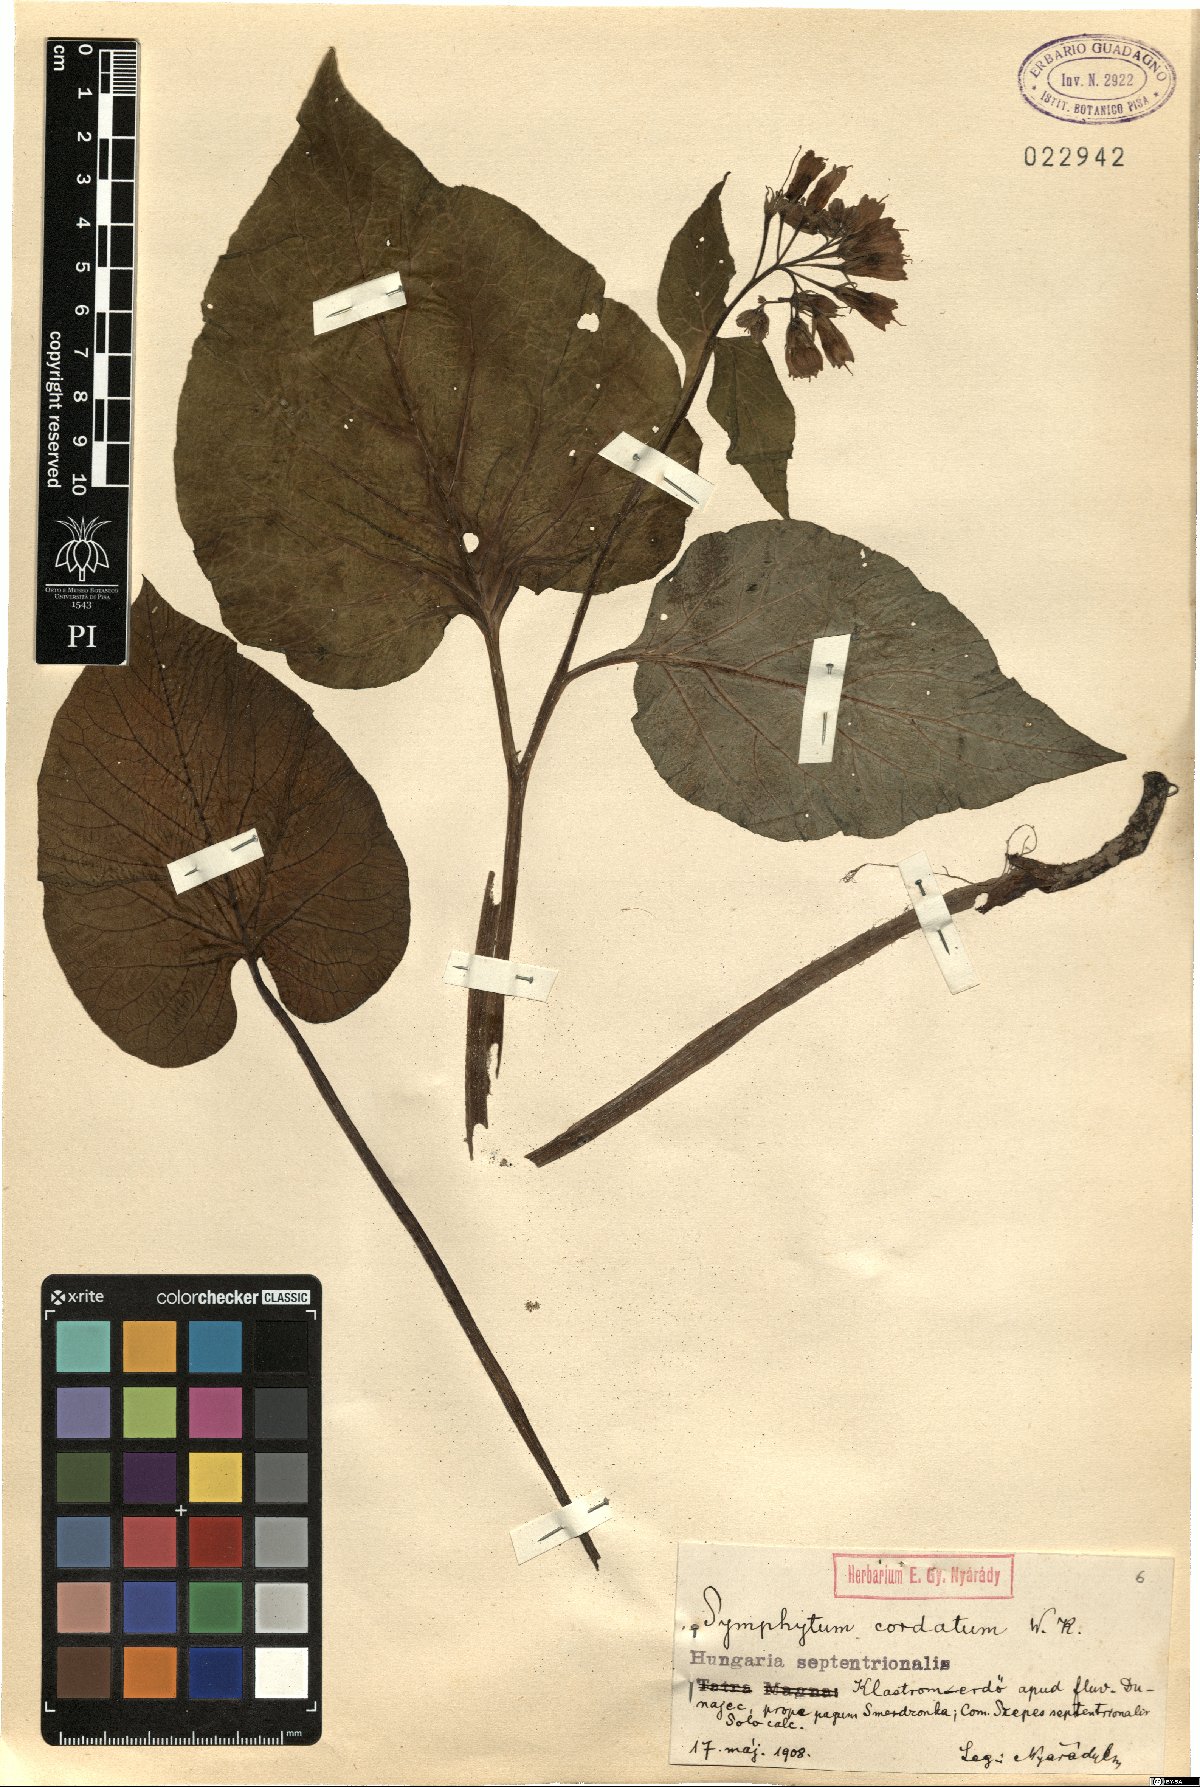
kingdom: Plantae
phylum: Tracheophyta
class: Magnoliopsida
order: Boraginales
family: Boraginaceae
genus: Symphytum
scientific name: Symphytum cordatum
